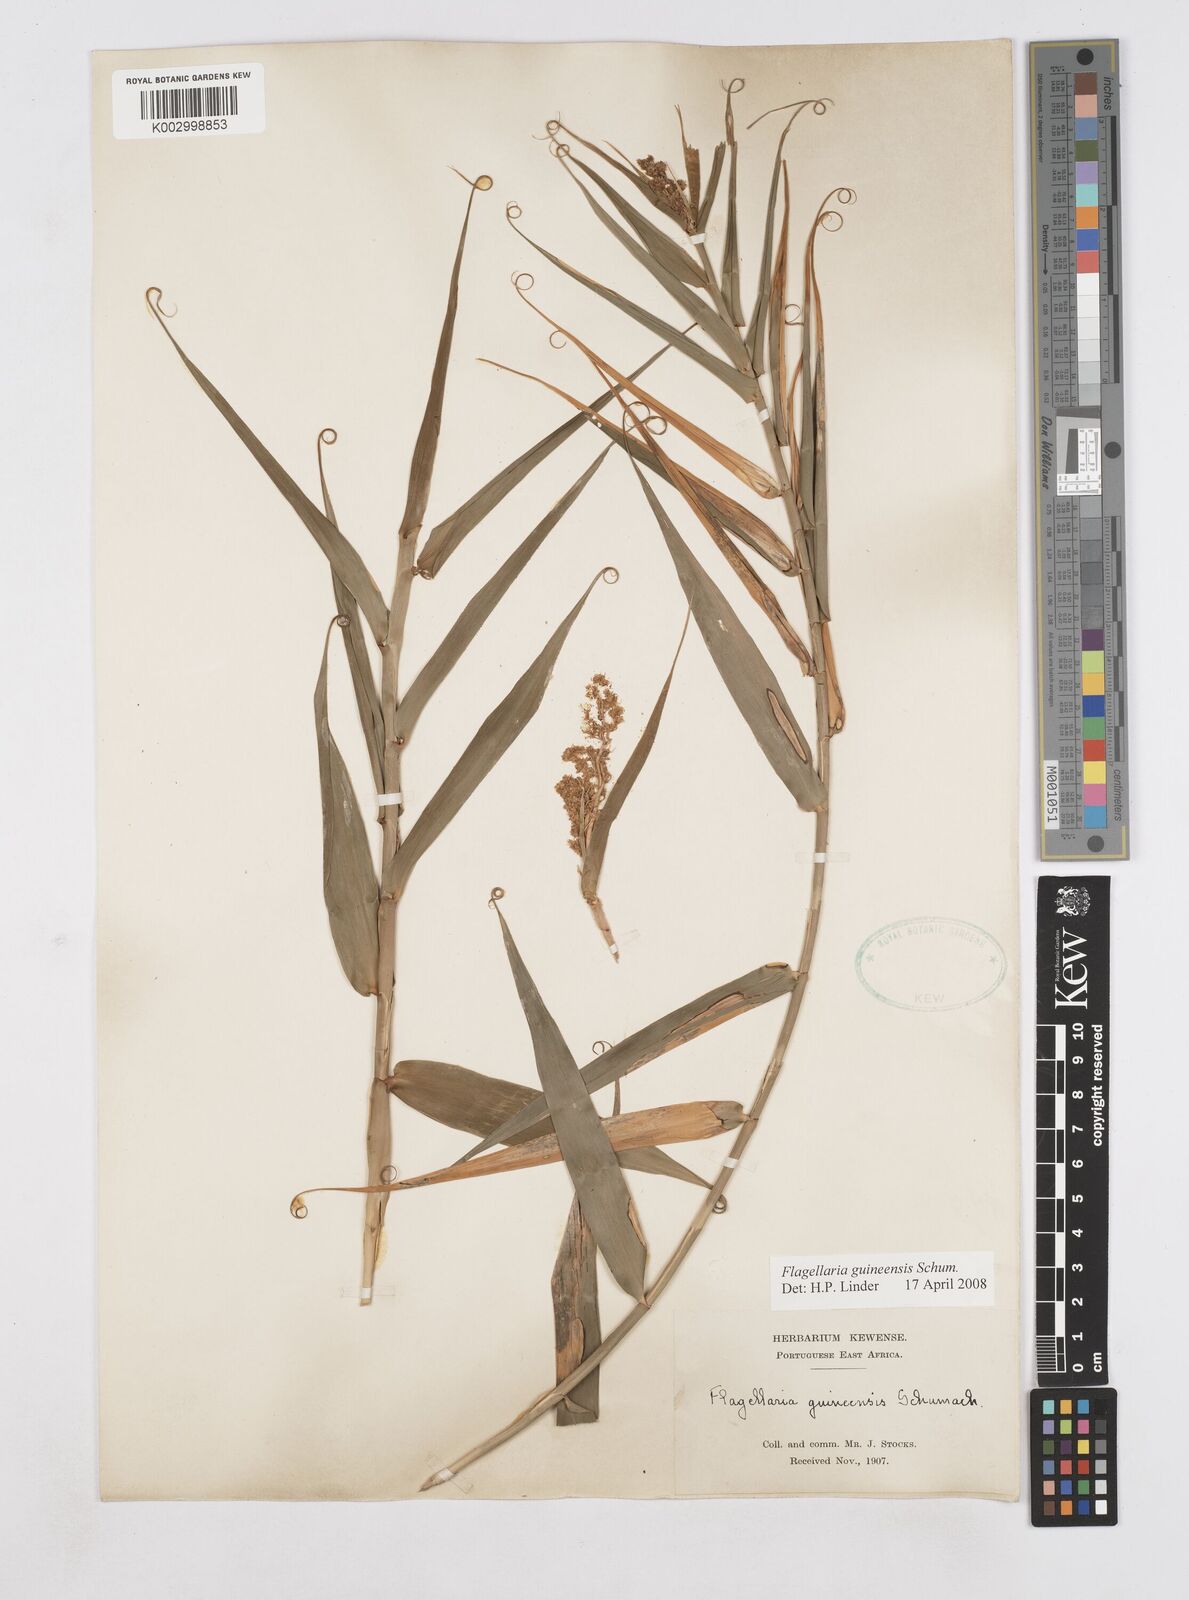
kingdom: Plantae
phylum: Tracheophyta
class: Liliopsida
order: Poales
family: Flagellariaceae
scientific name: Flagellariaceae
